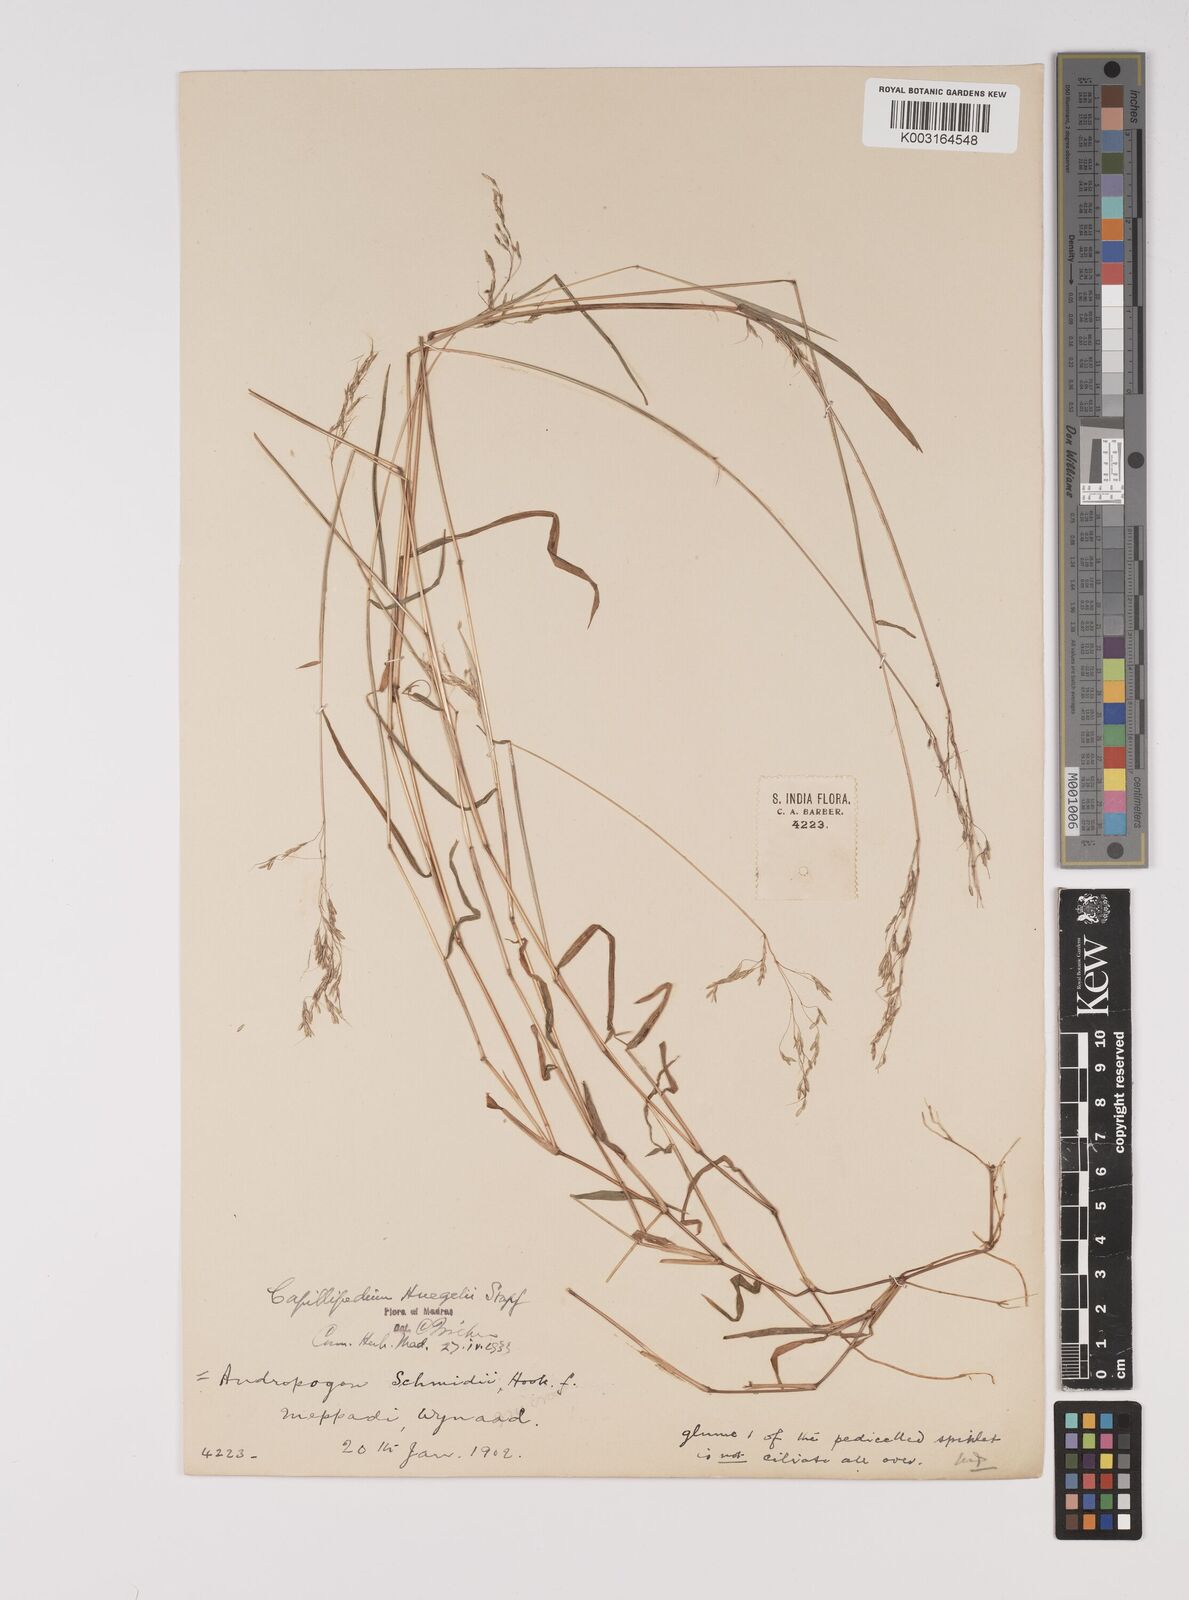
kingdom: Plantae
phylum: Tracheophyta
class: Liliopsida
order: Poales
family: Poaceae
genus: Capillipedium
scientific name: Capillipedium huegelii
